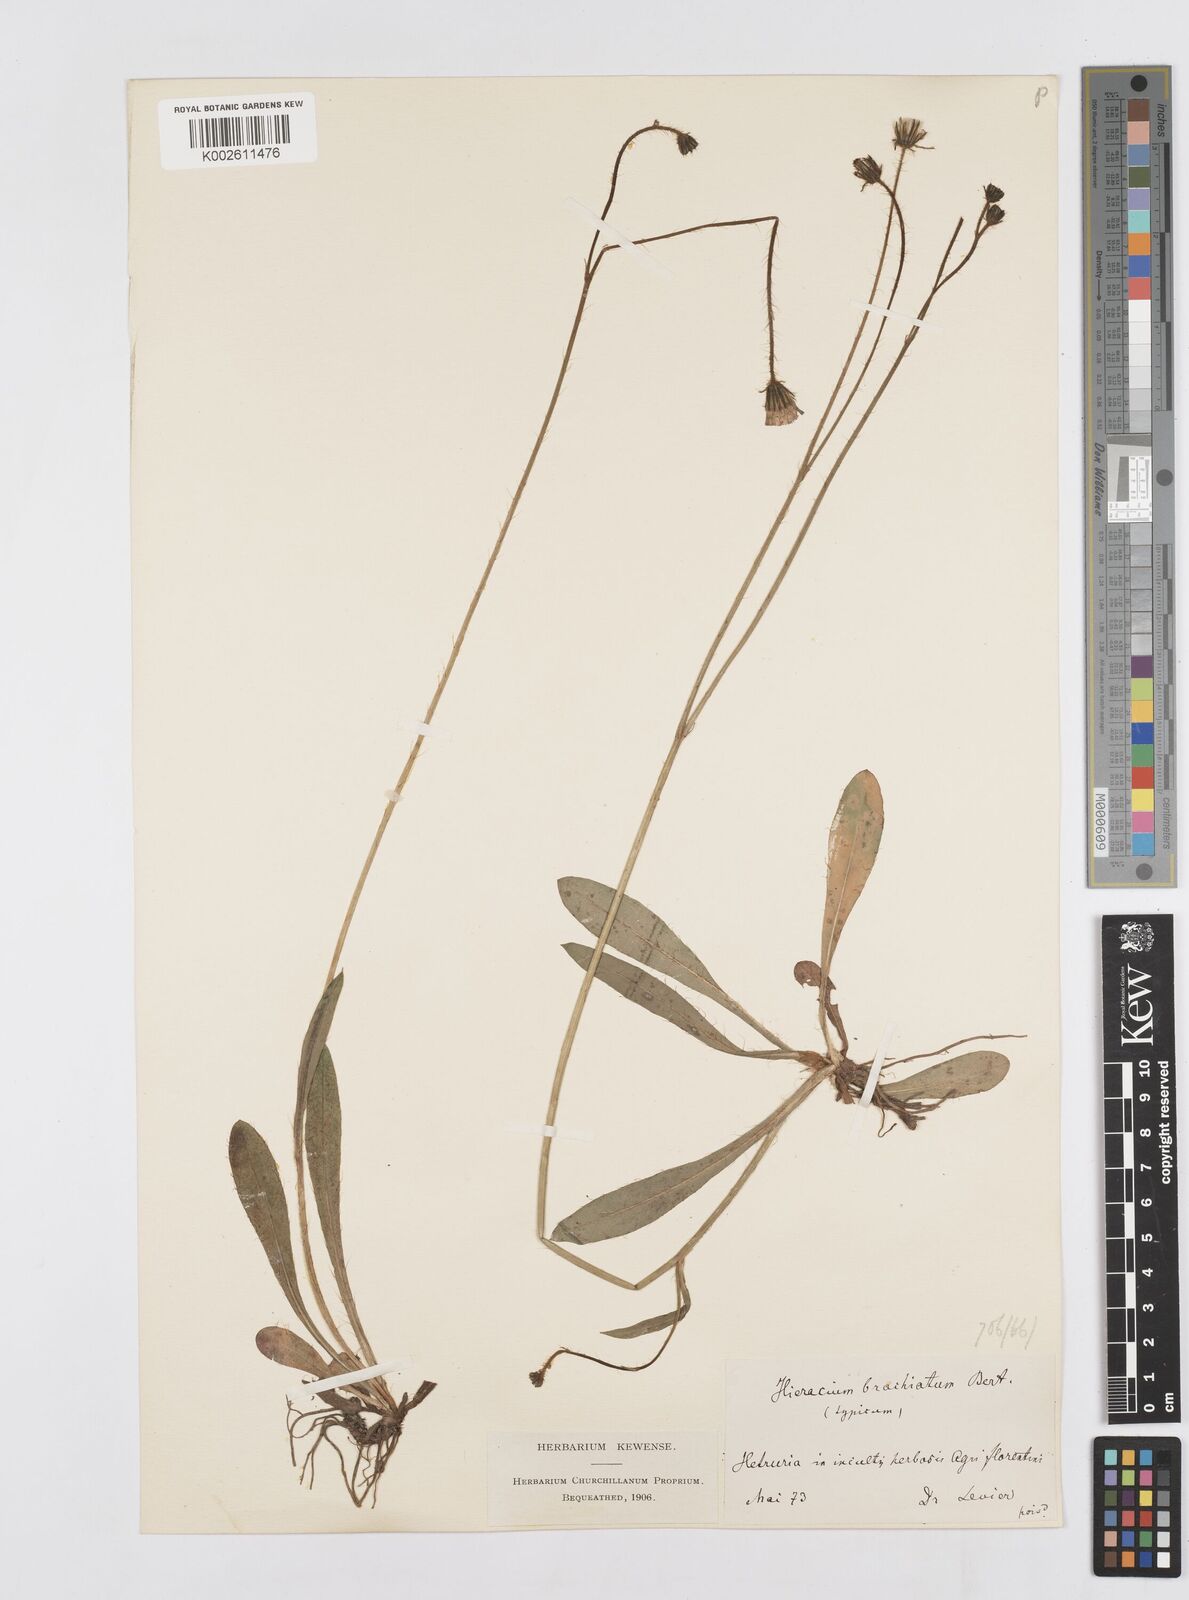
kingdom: Plantae
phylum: Tracheophyta
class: Magnoliopsida
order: Asterales
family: Asteraceae
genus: Pilosella
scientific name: Pilosella acutifolia
